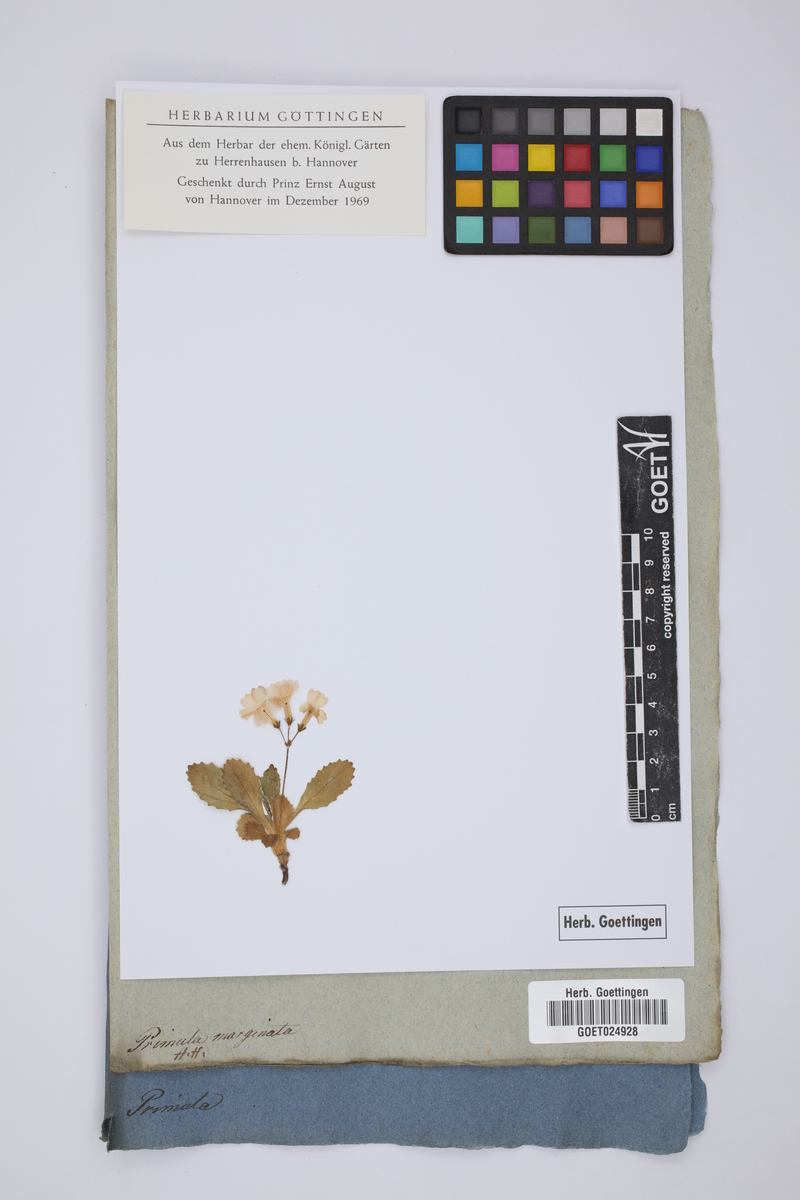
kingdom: Plantae
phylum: Tracheophyta
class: Magnoliopsida
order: Ericales
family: Primulaceae
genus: Primula
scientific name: Primula marginata
